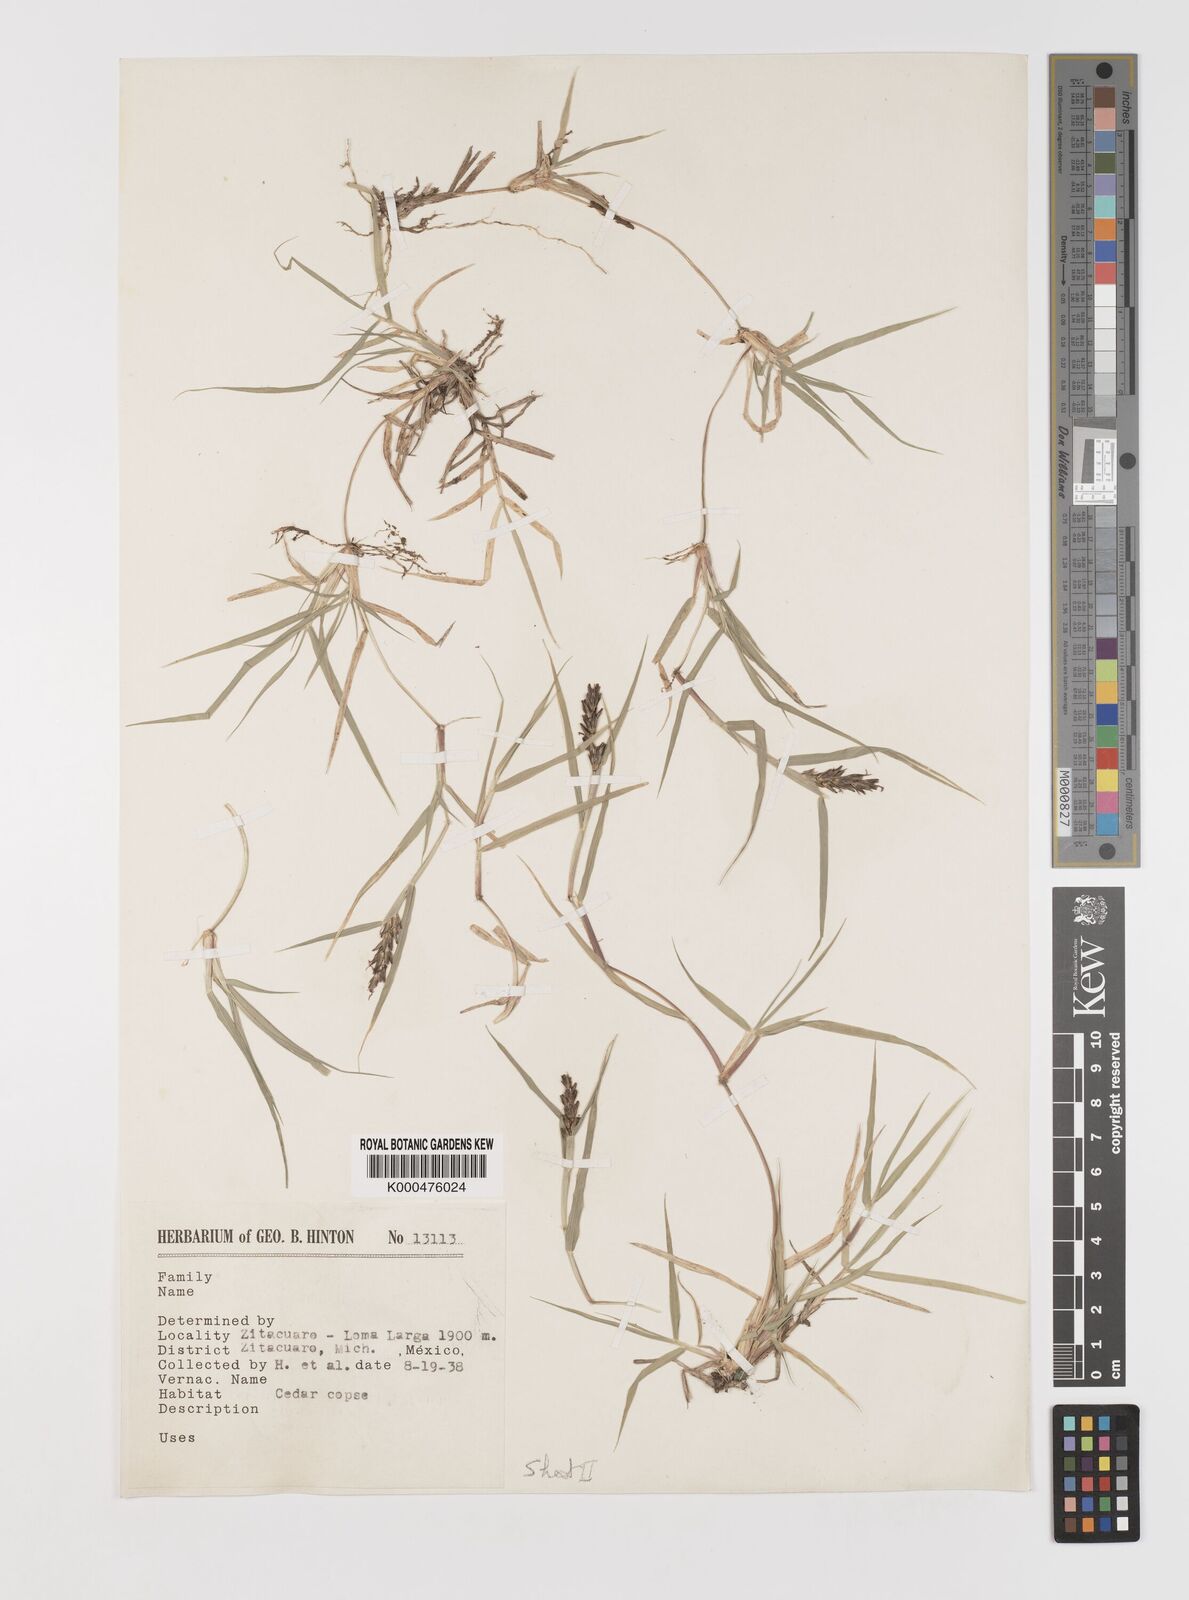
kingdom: Plantae
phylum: Tracheophyta
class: Liliopsida
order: Poales
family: Poaceae
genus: Hilaria
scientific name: Hilaria cenchroides
